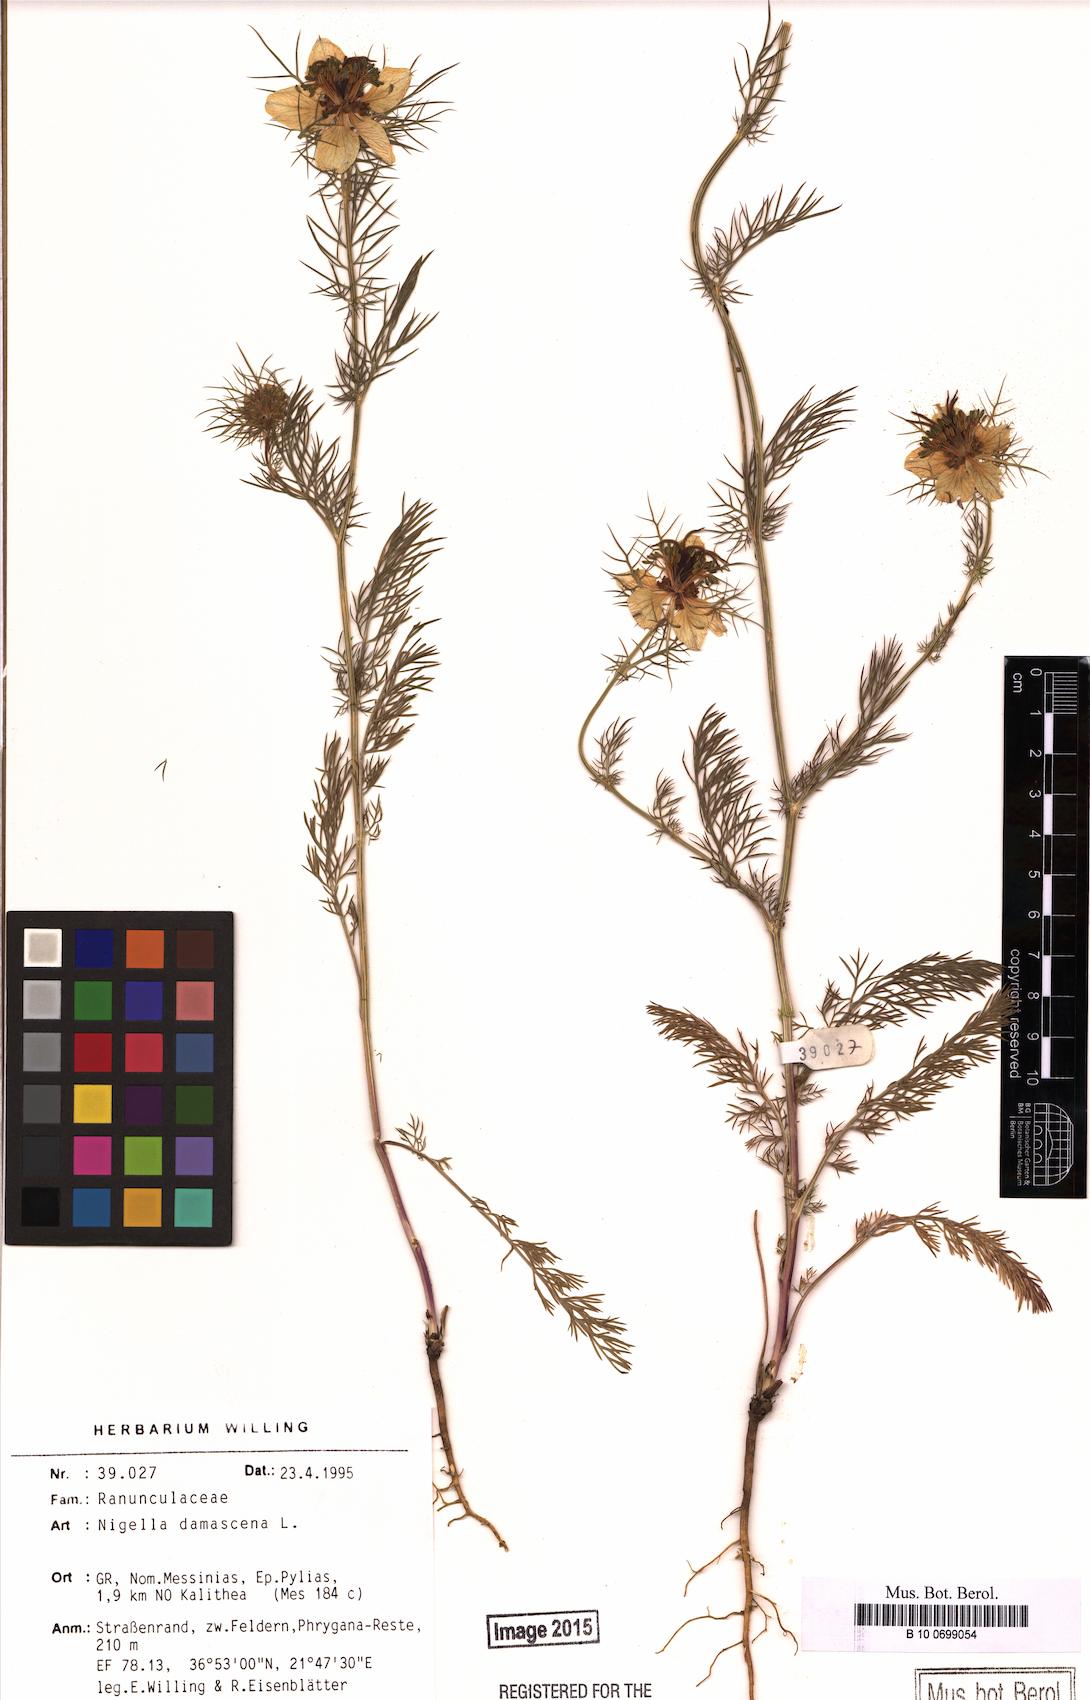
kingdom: Plantae
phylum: Tracheophyta
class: Magnoliopsida
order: Ranunculales
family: Ranunculaceae
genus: Nigella
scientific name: Nigella damascena
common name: Love-in-a-mist
